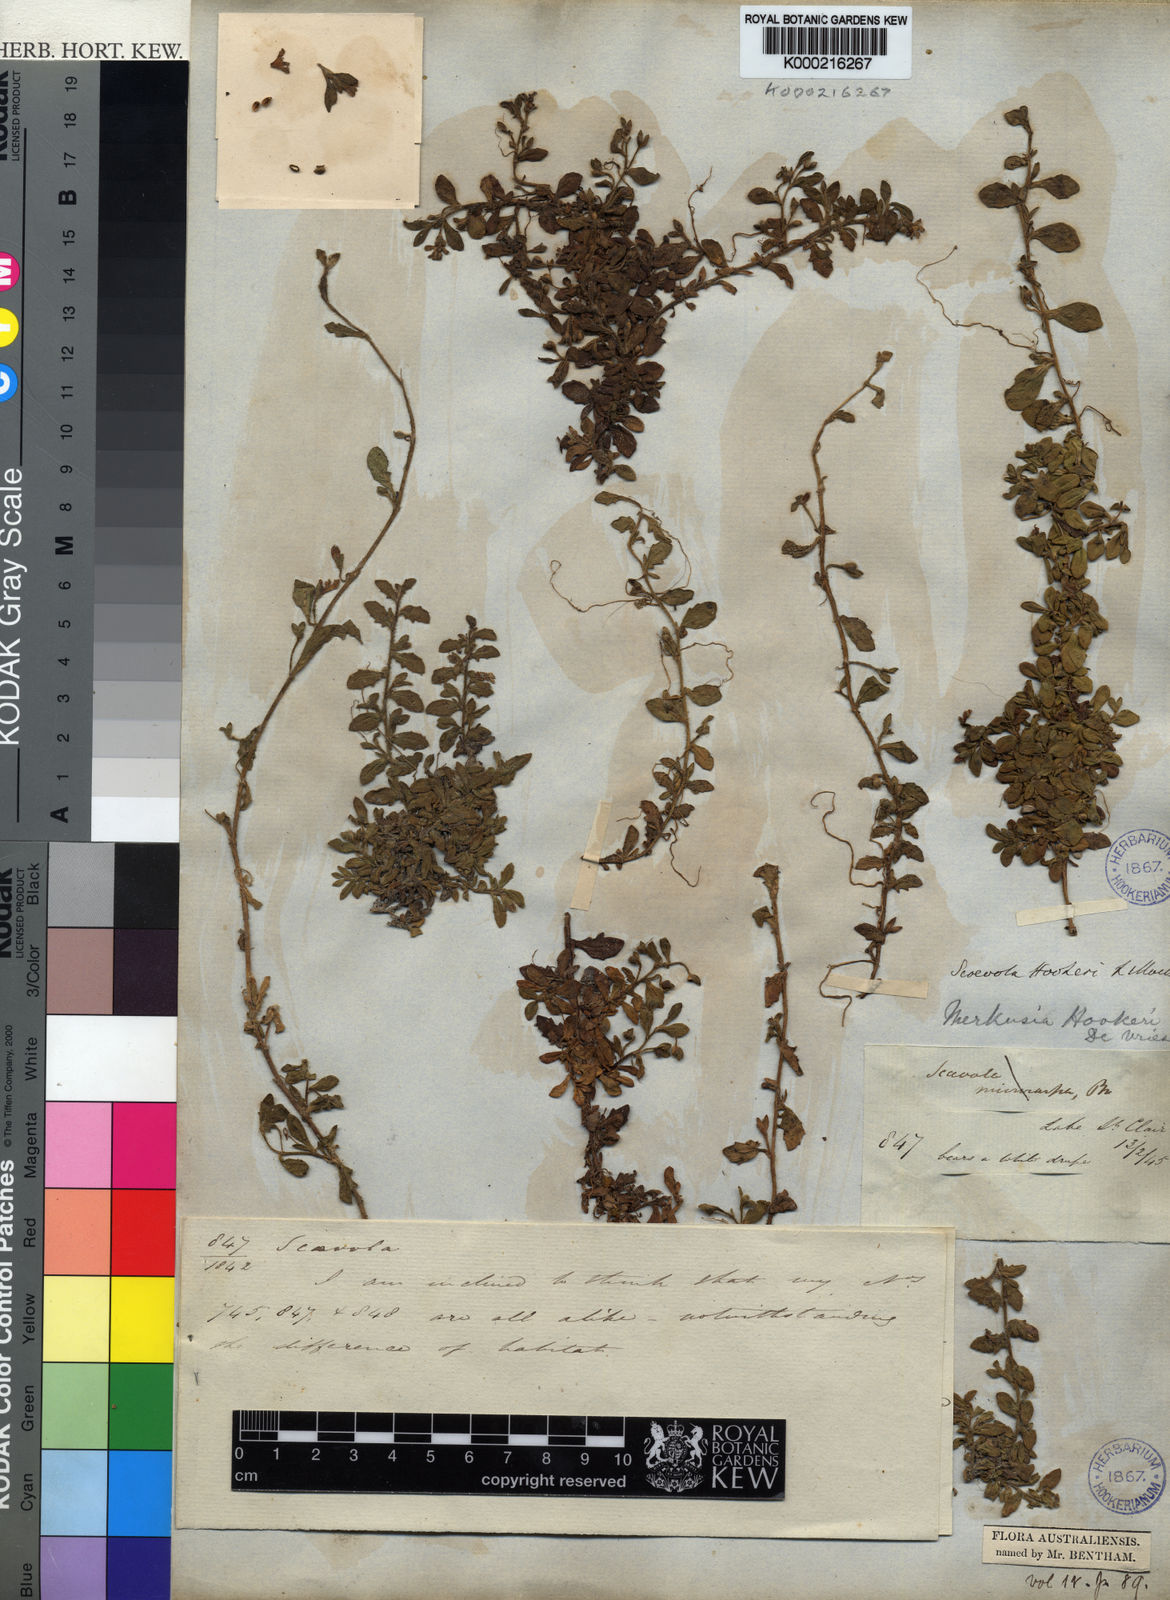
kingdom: Plantae
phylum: Tracheophyta
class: Magnoliopsida
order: Asterales
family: Goodeniaceae
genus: Scaevola
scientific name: Scaevola hookeri
